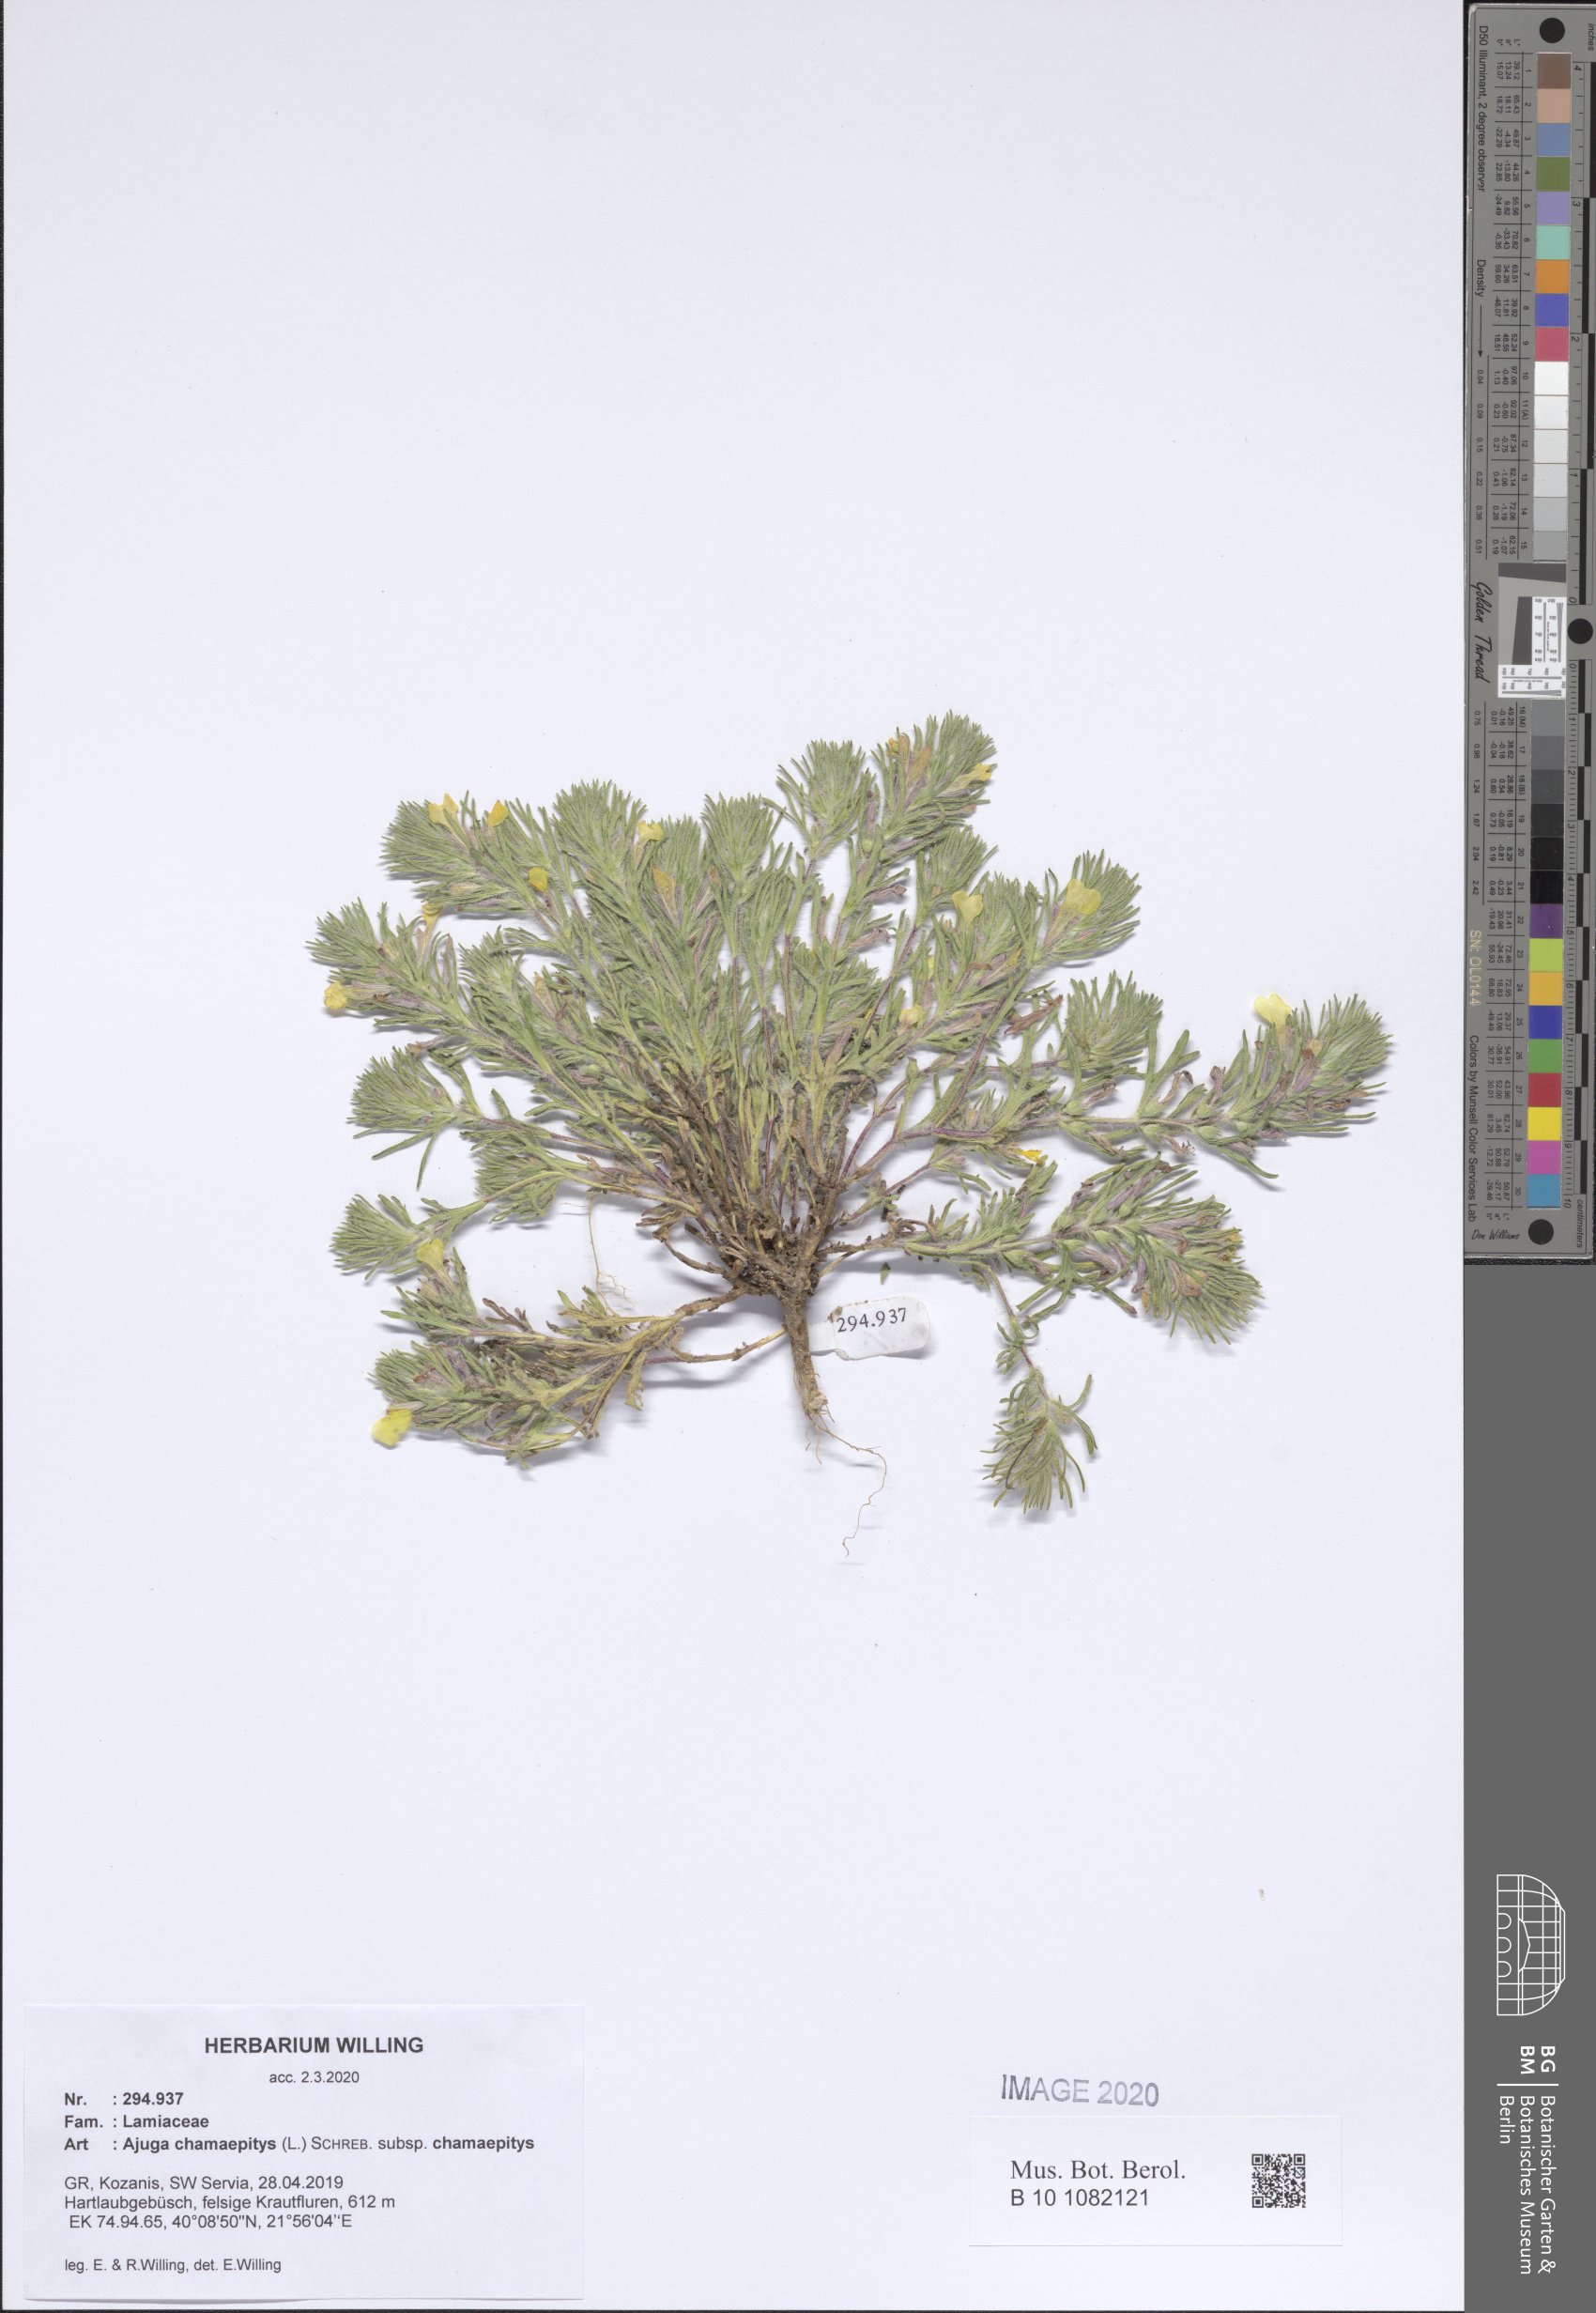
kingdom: Plantae
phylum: Tracheophyta
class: Magnoliopsida
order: Lamiales
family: Lamiaceae
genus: Ajuga
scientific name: Ajuga chamaepitys
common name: Ground-pine
